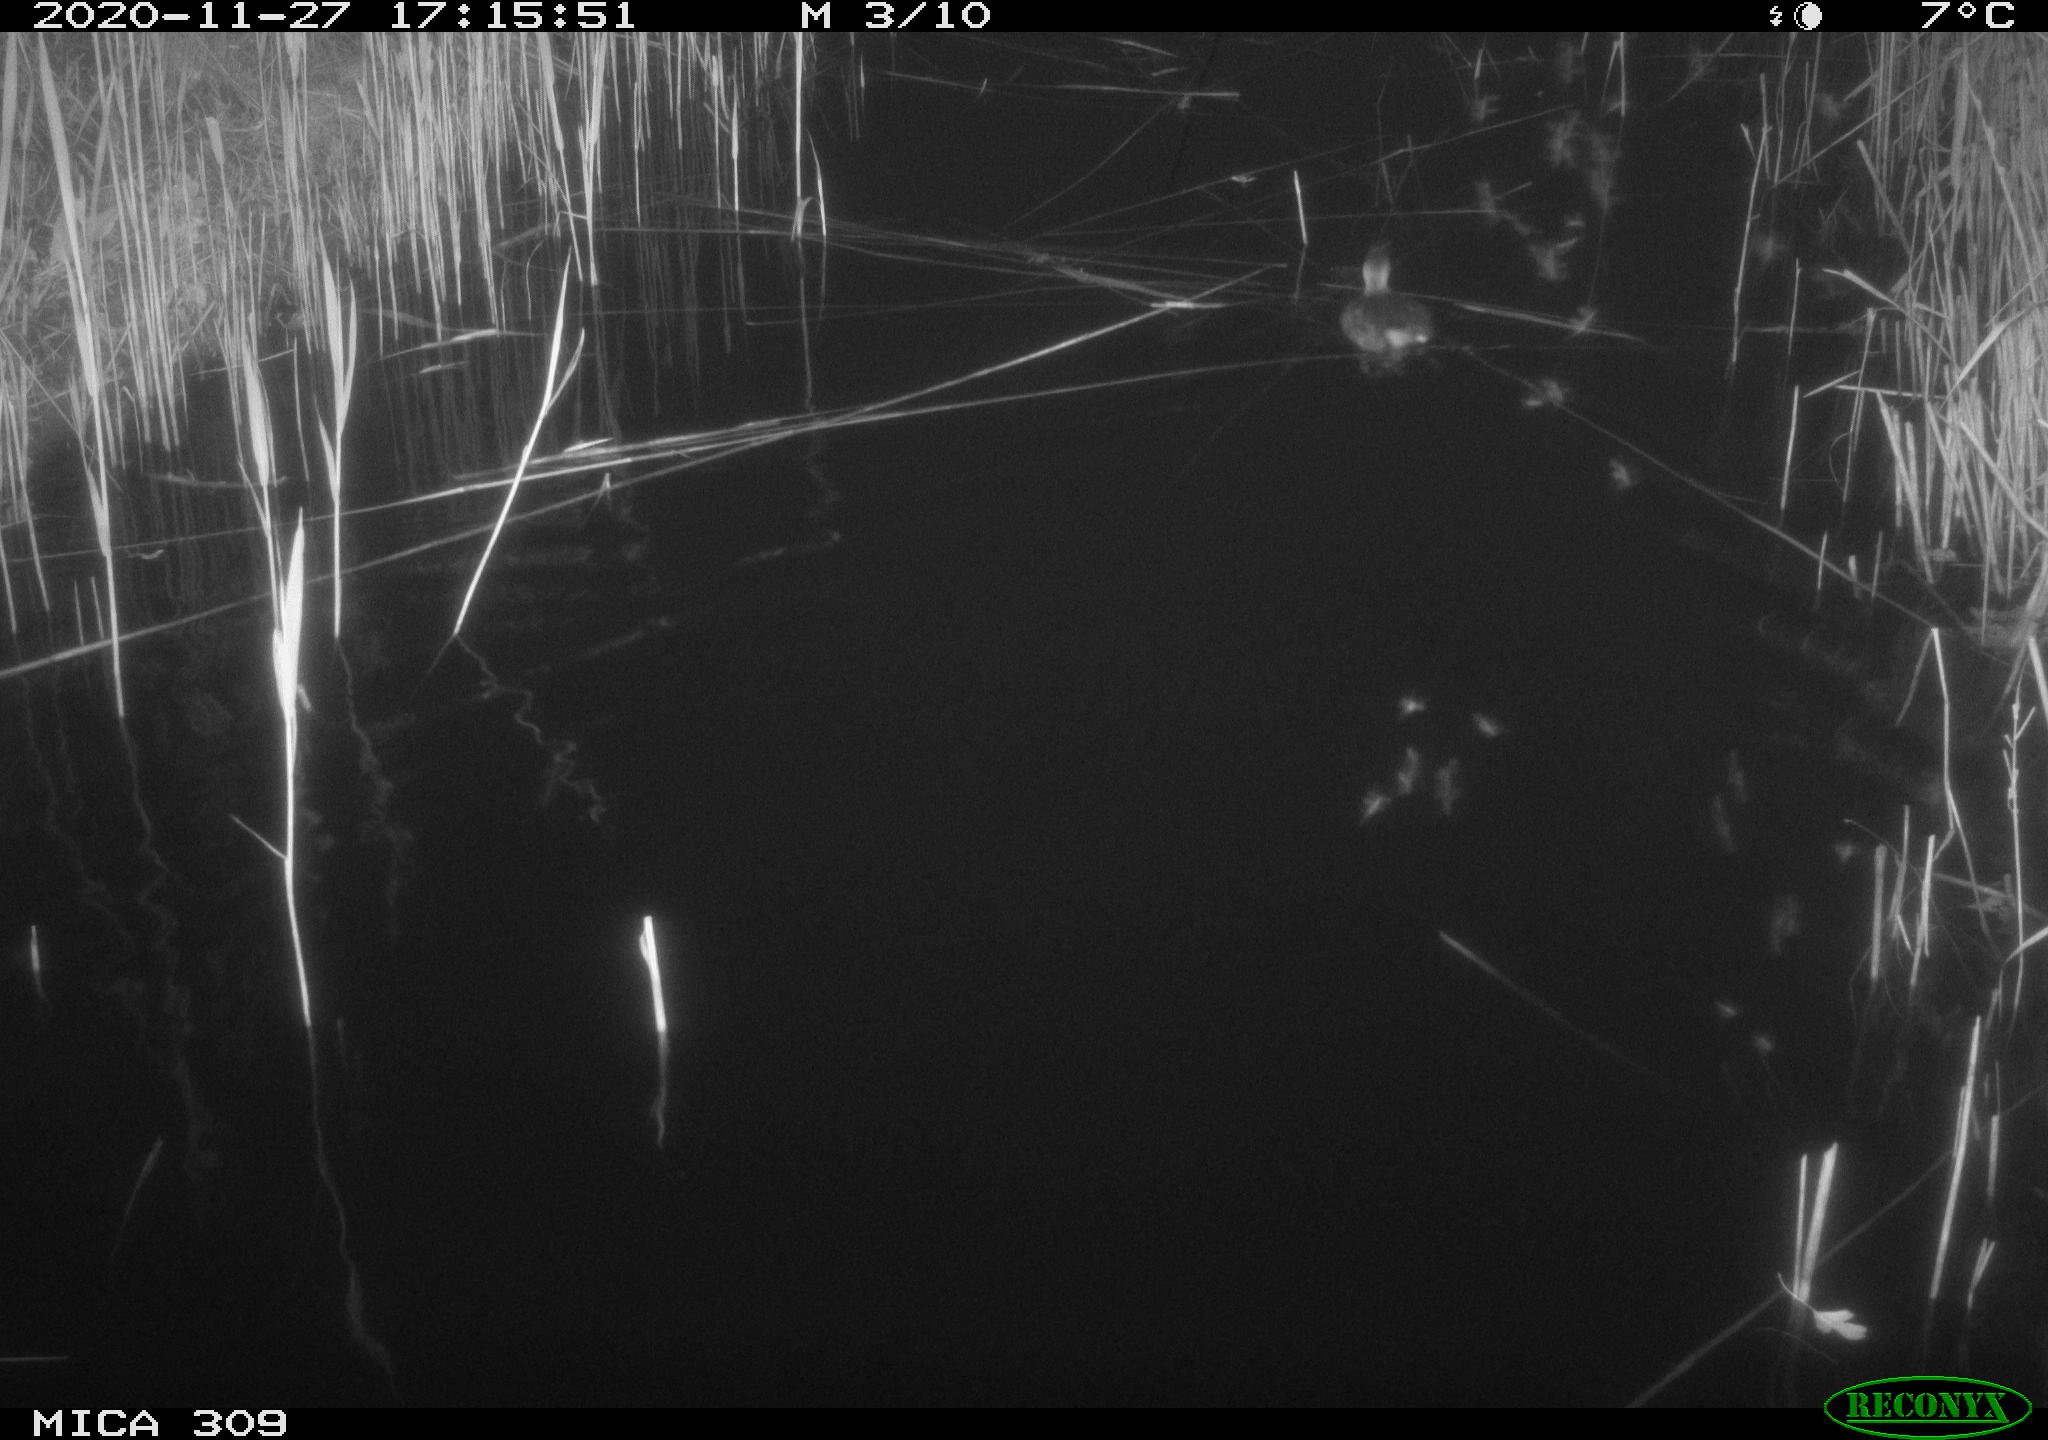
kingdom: Animalia
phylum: Chordata
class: Aves
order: Podicipediformes
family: Podicipedidae
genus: Tachybaptus
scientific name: Tachybaptus ruficollis
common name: Little grebe
